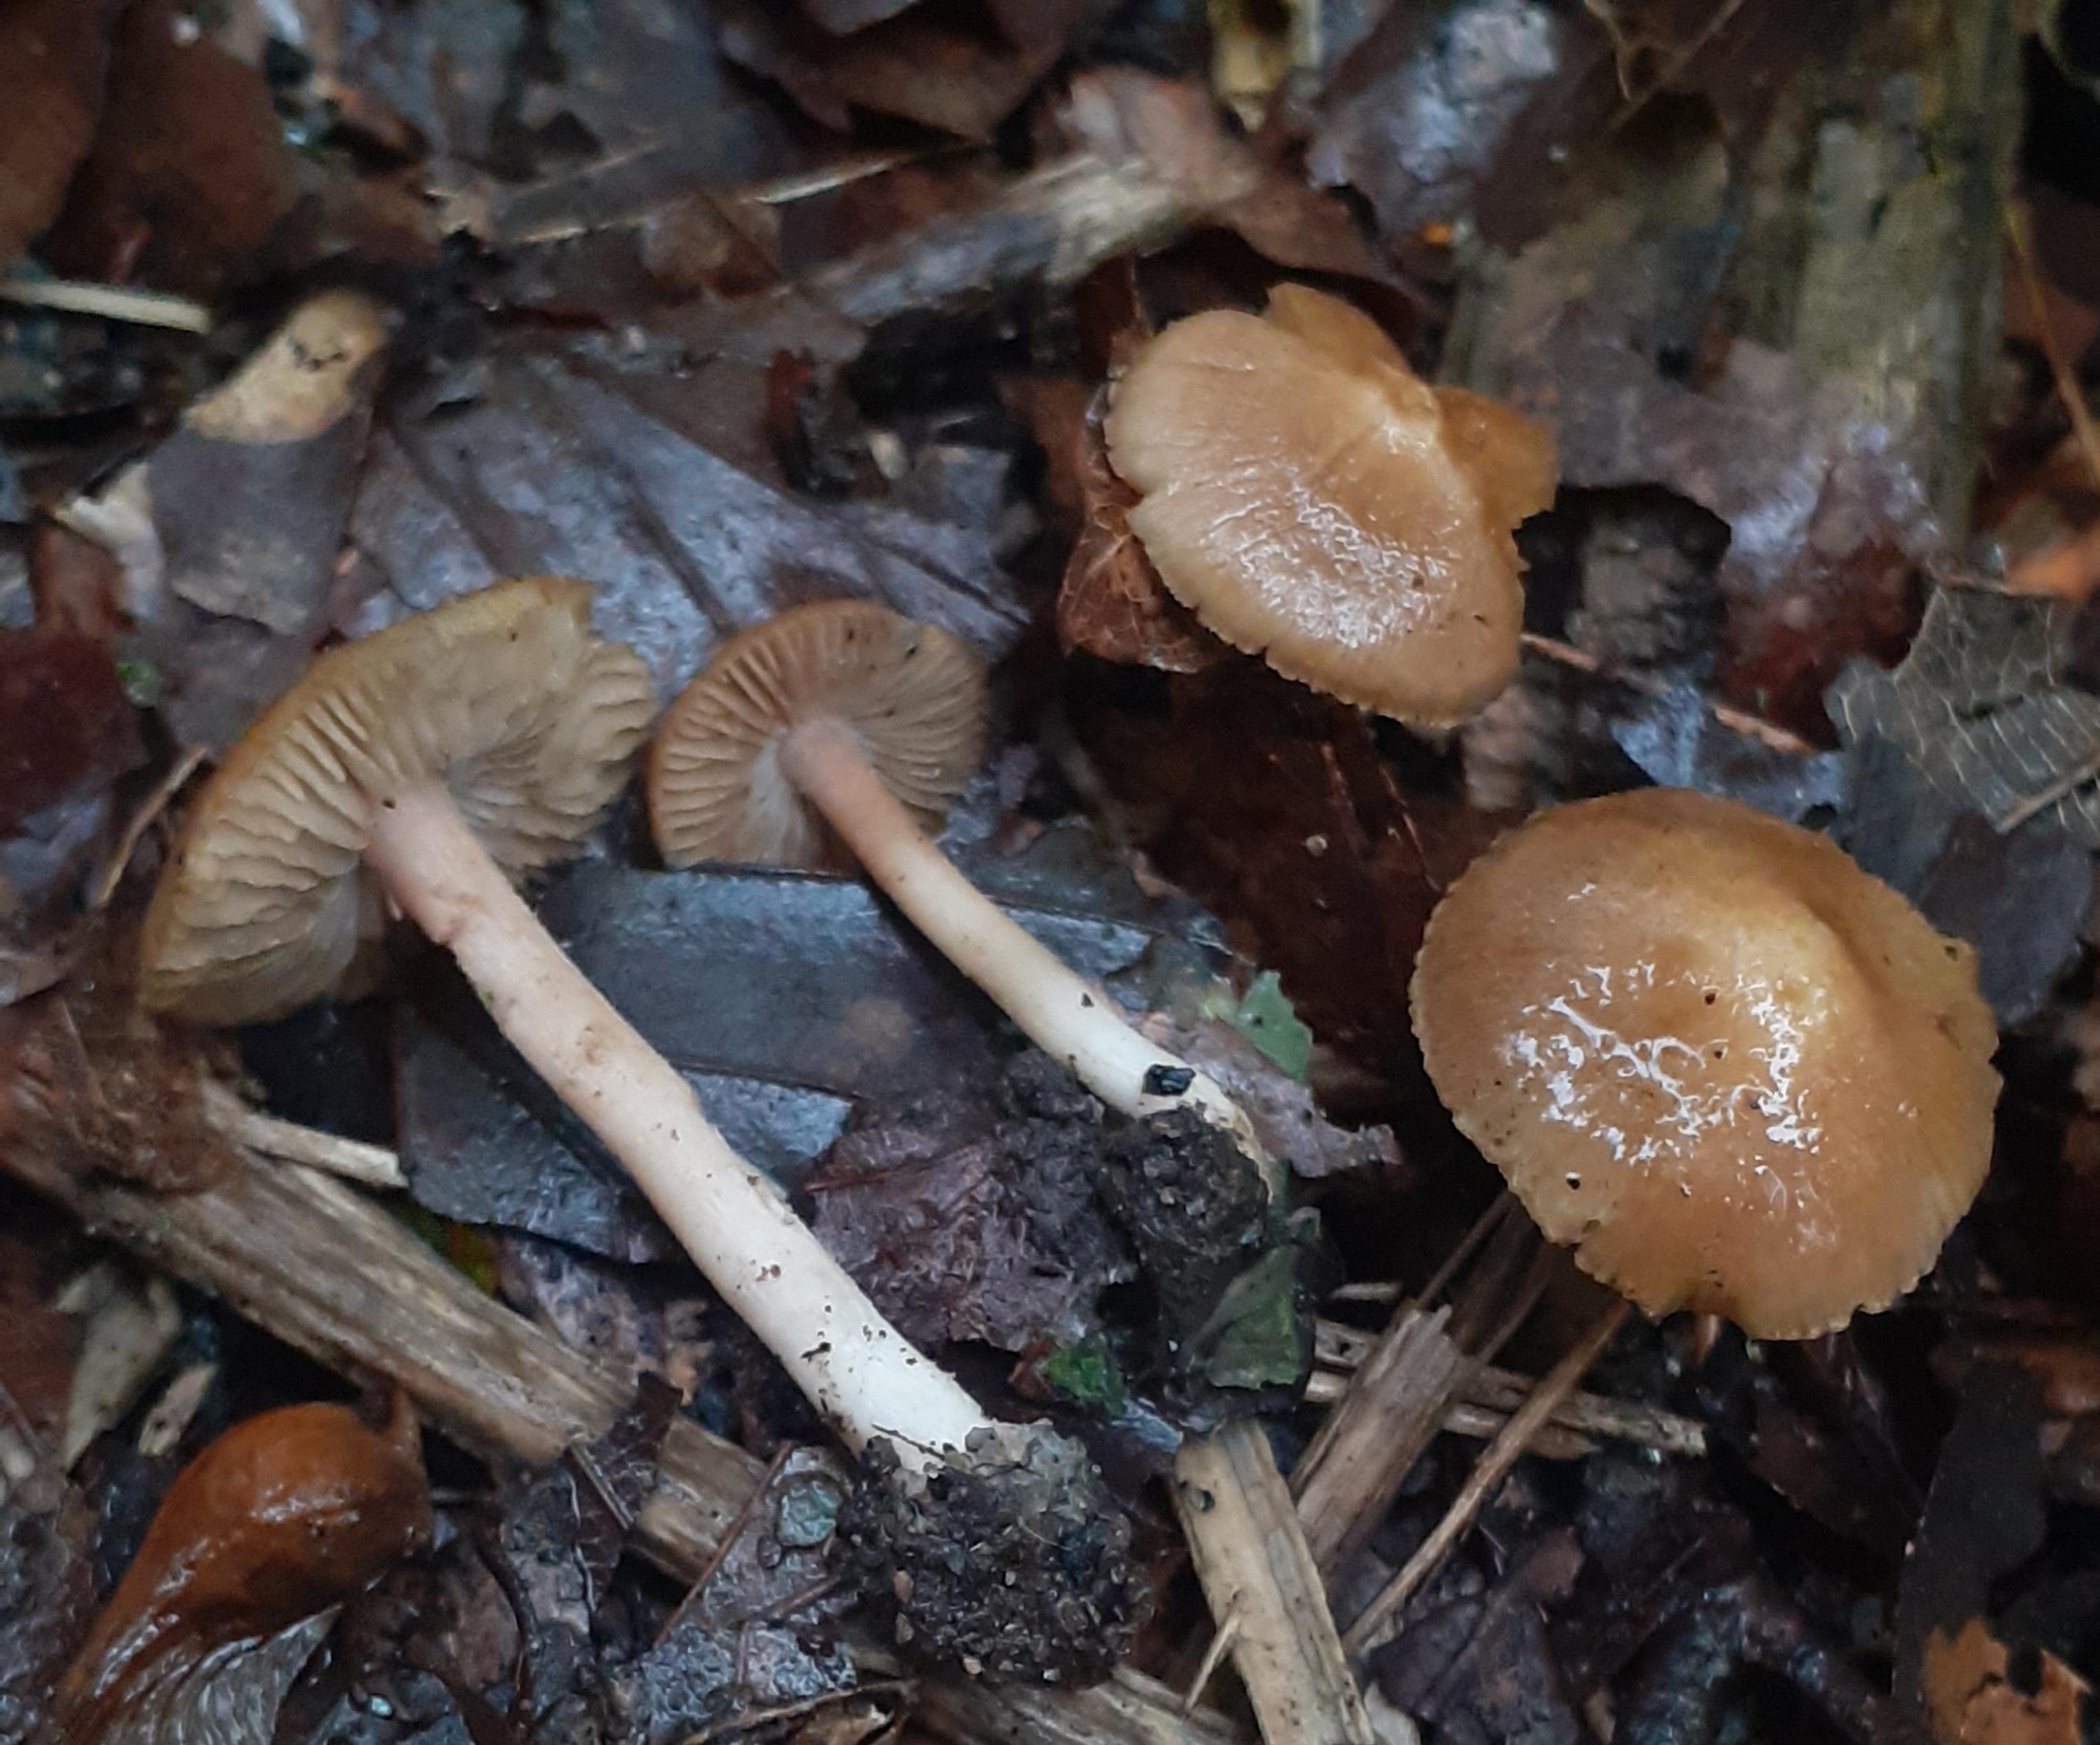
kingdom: Fungi
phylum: Basidiomycota
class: Agaricomycetes
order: Agaricales
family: Inocybaceae
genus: Inocybe
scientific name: Inocybe hirtella
